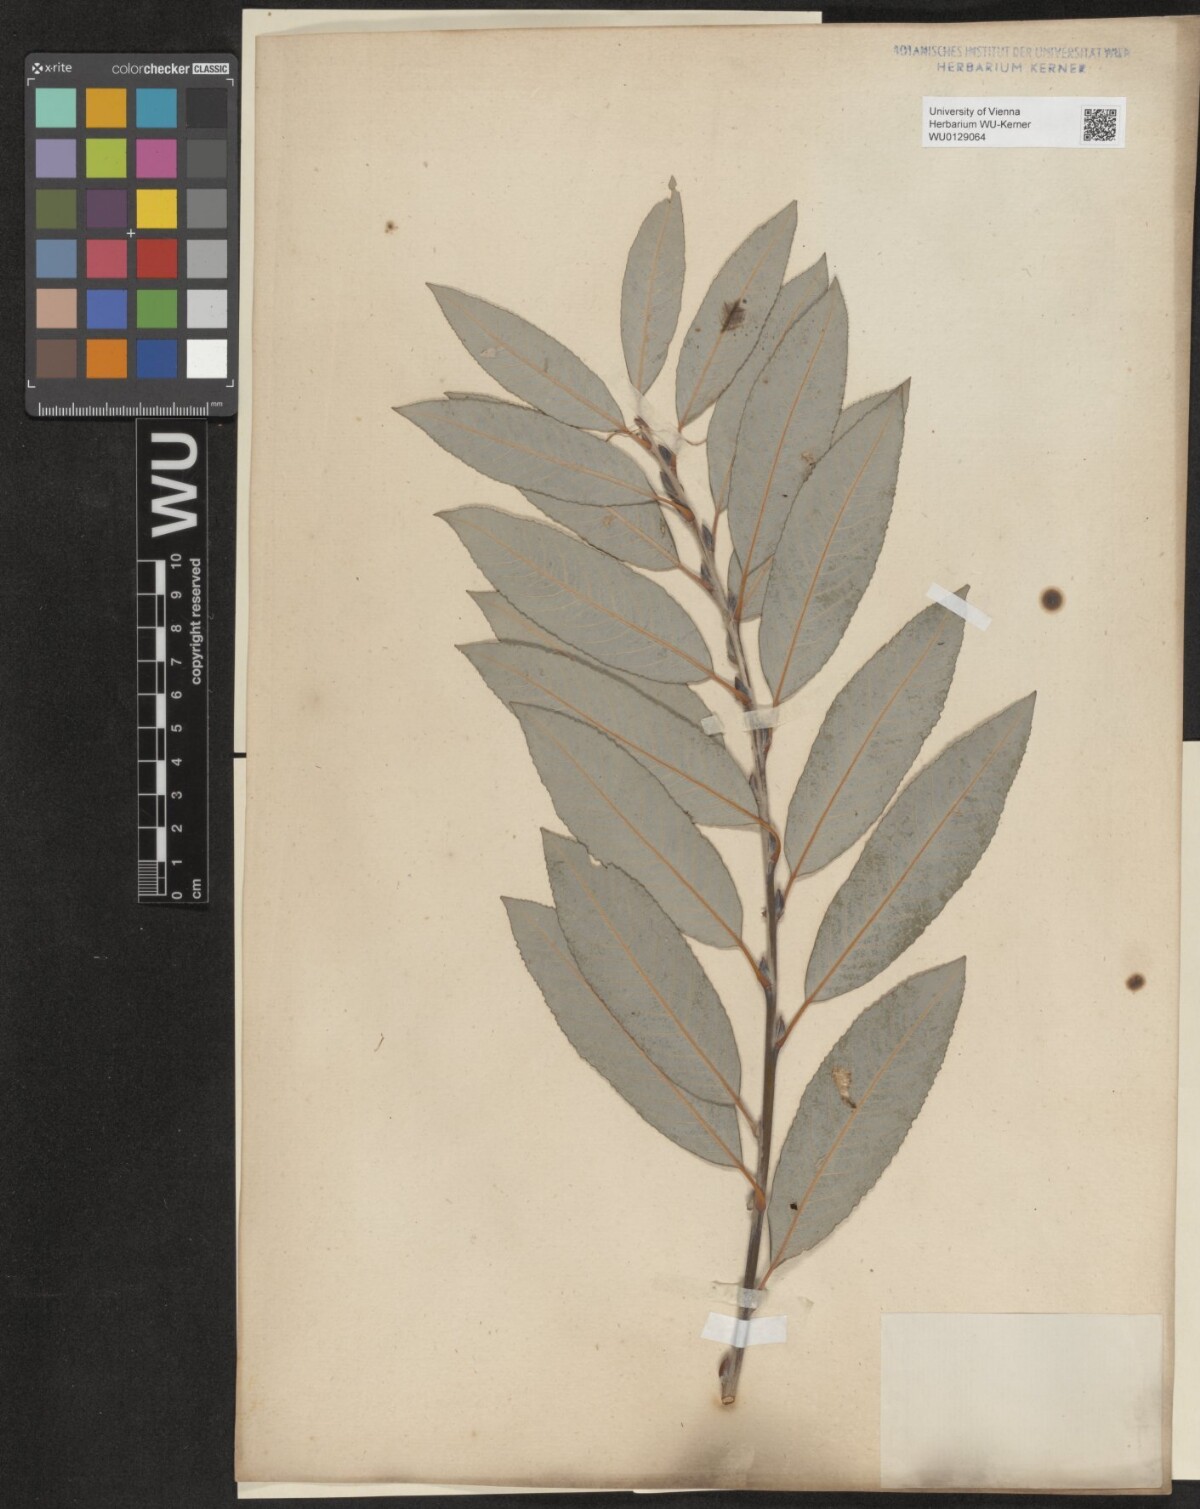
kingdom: Plantae
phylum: Tracheophyta
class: Magnoliopsida
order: Malpighiales
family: Salicaceae
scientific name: Salicaceae
